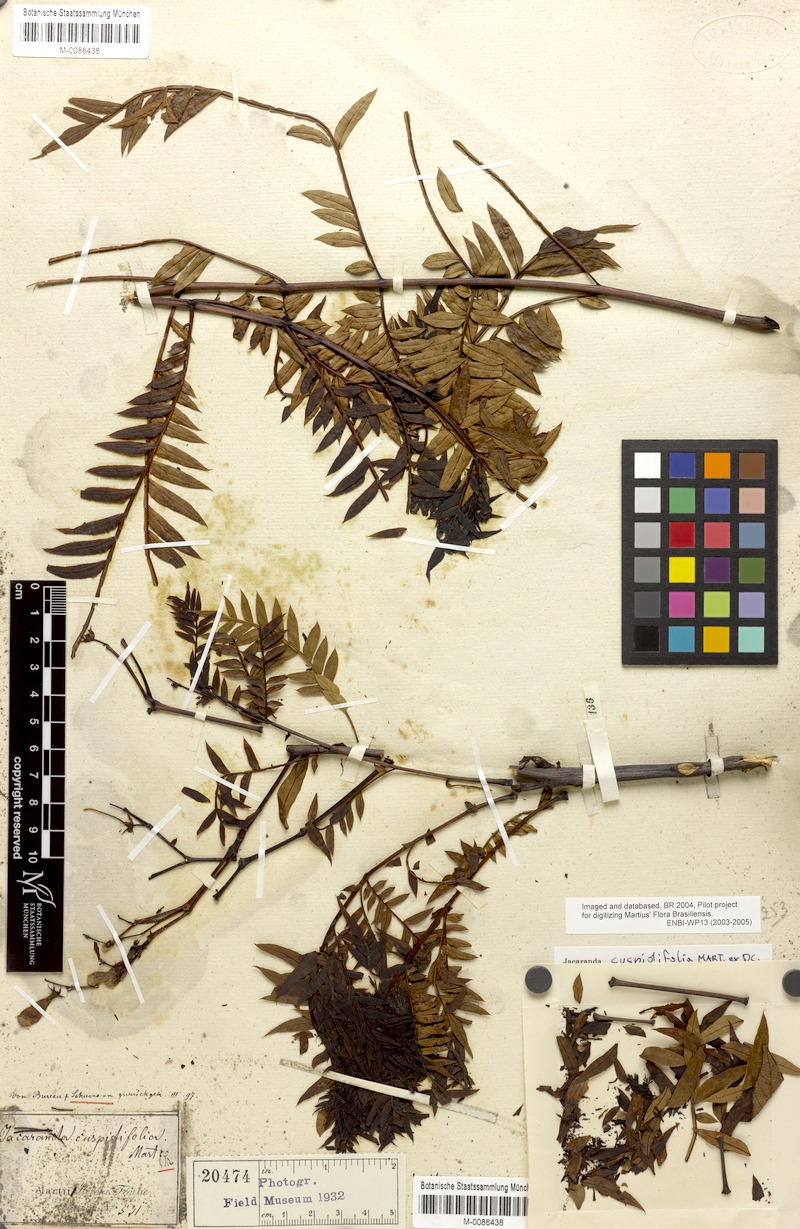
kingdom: Plantae
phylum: Tracheophyta
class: Magnoliopsida
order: Lamiales
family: Bignoniaceae
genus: Jacaranda
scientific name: Jacaranda cuspidifolia
